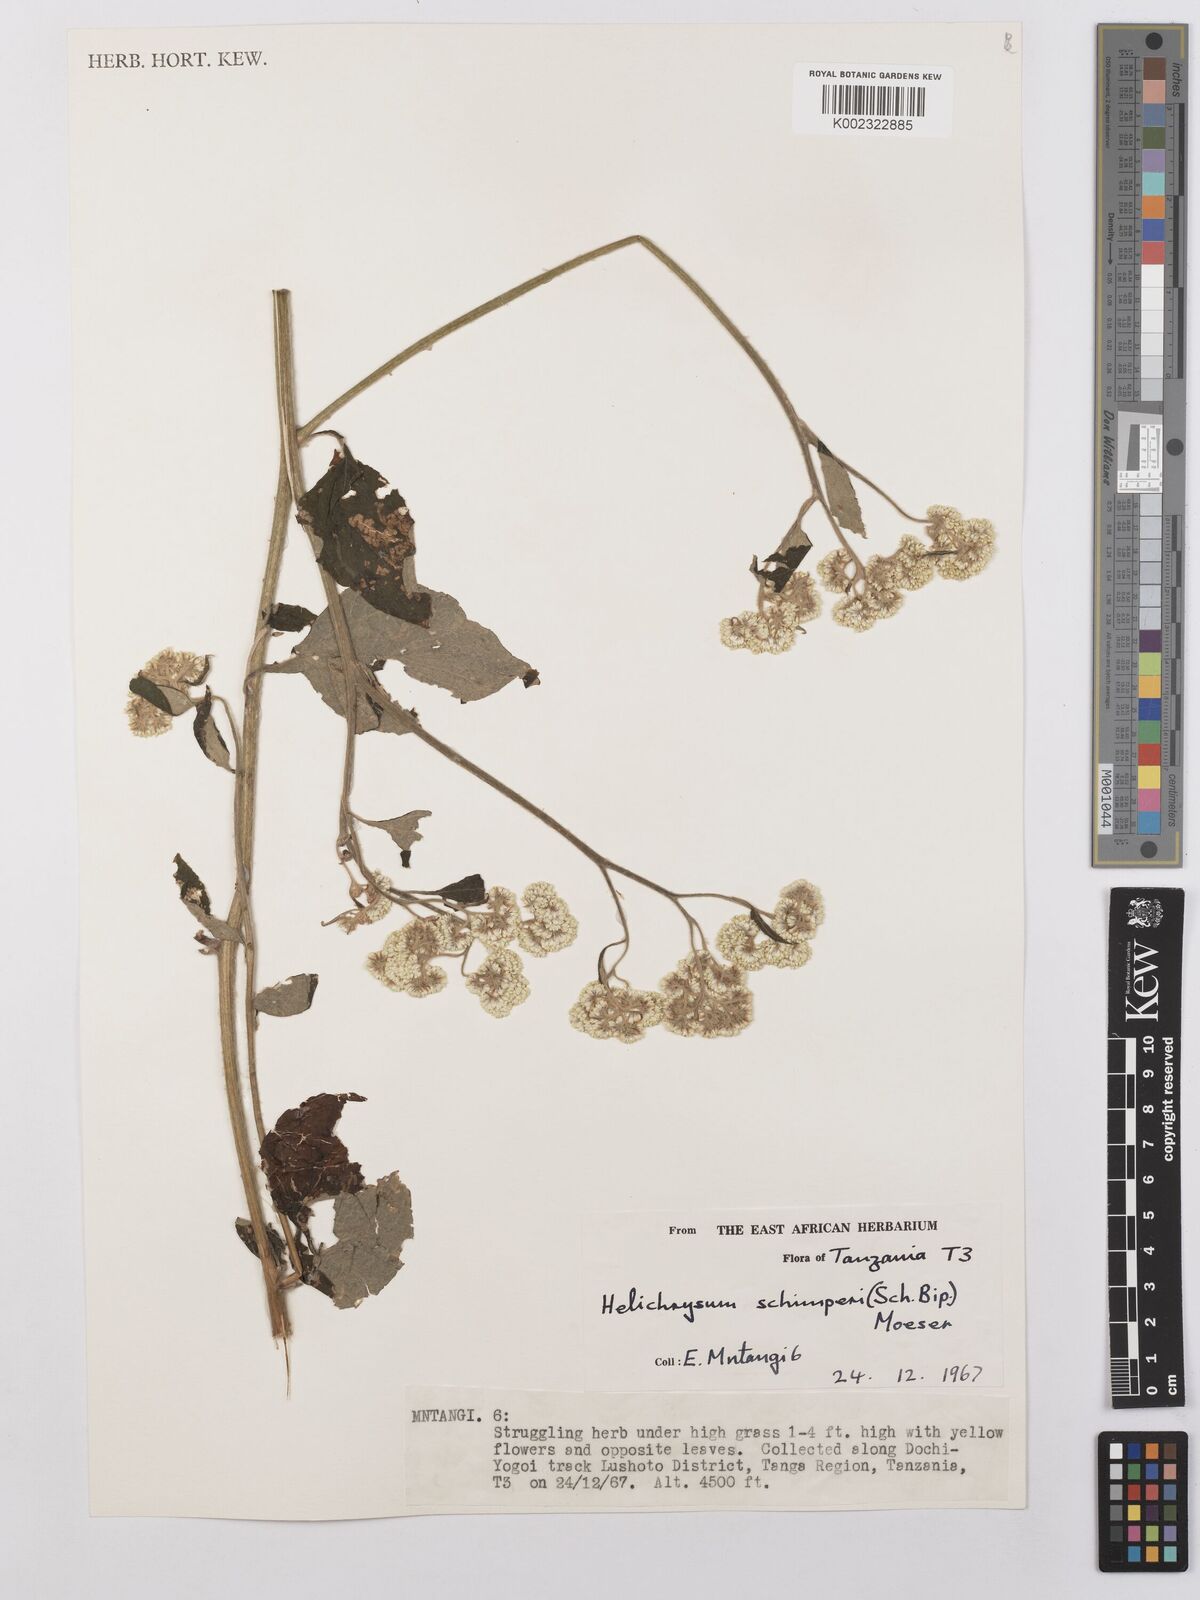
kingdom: Plantae
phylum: Tracheophyta
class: Magnoliopsida
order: Asterales
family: Asteraceae
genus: Helichrysum
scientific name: Helichrysum schimperi
